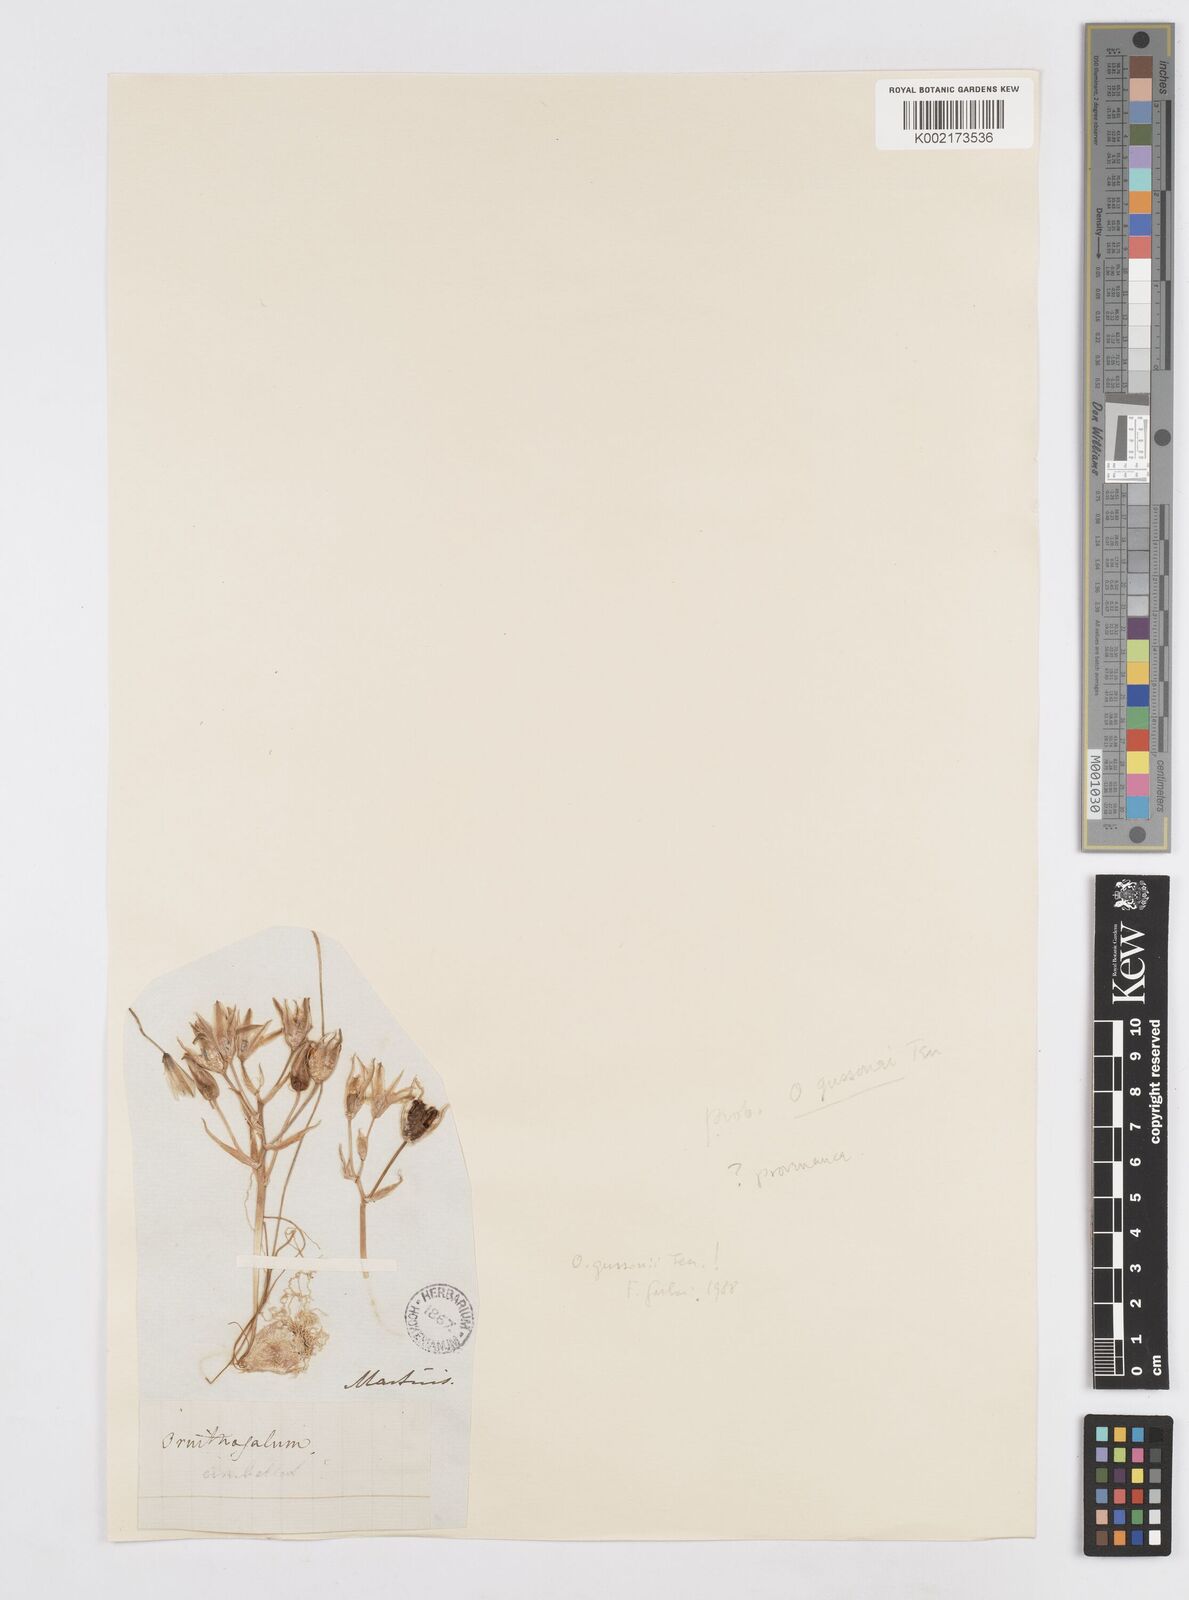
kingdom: Plantae
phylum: Tracheophyta
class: Liliopsida
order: Asparagales
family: Asparagaceae
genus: Ornithogalum
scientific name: Ornithogalum gussonei
